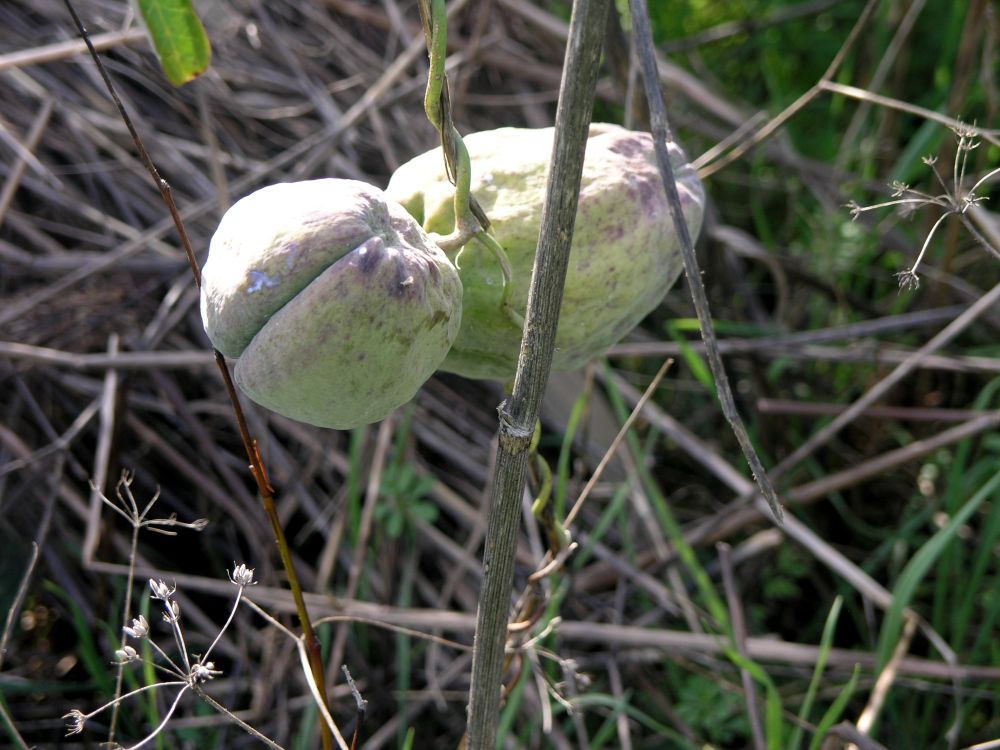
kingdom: Plantae
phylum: Tracheophyta
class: Magnoliopsida
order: Gentianales
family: Apocynaceae
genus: Araujia
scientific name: Araujia sericifera
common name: White bladderflower
